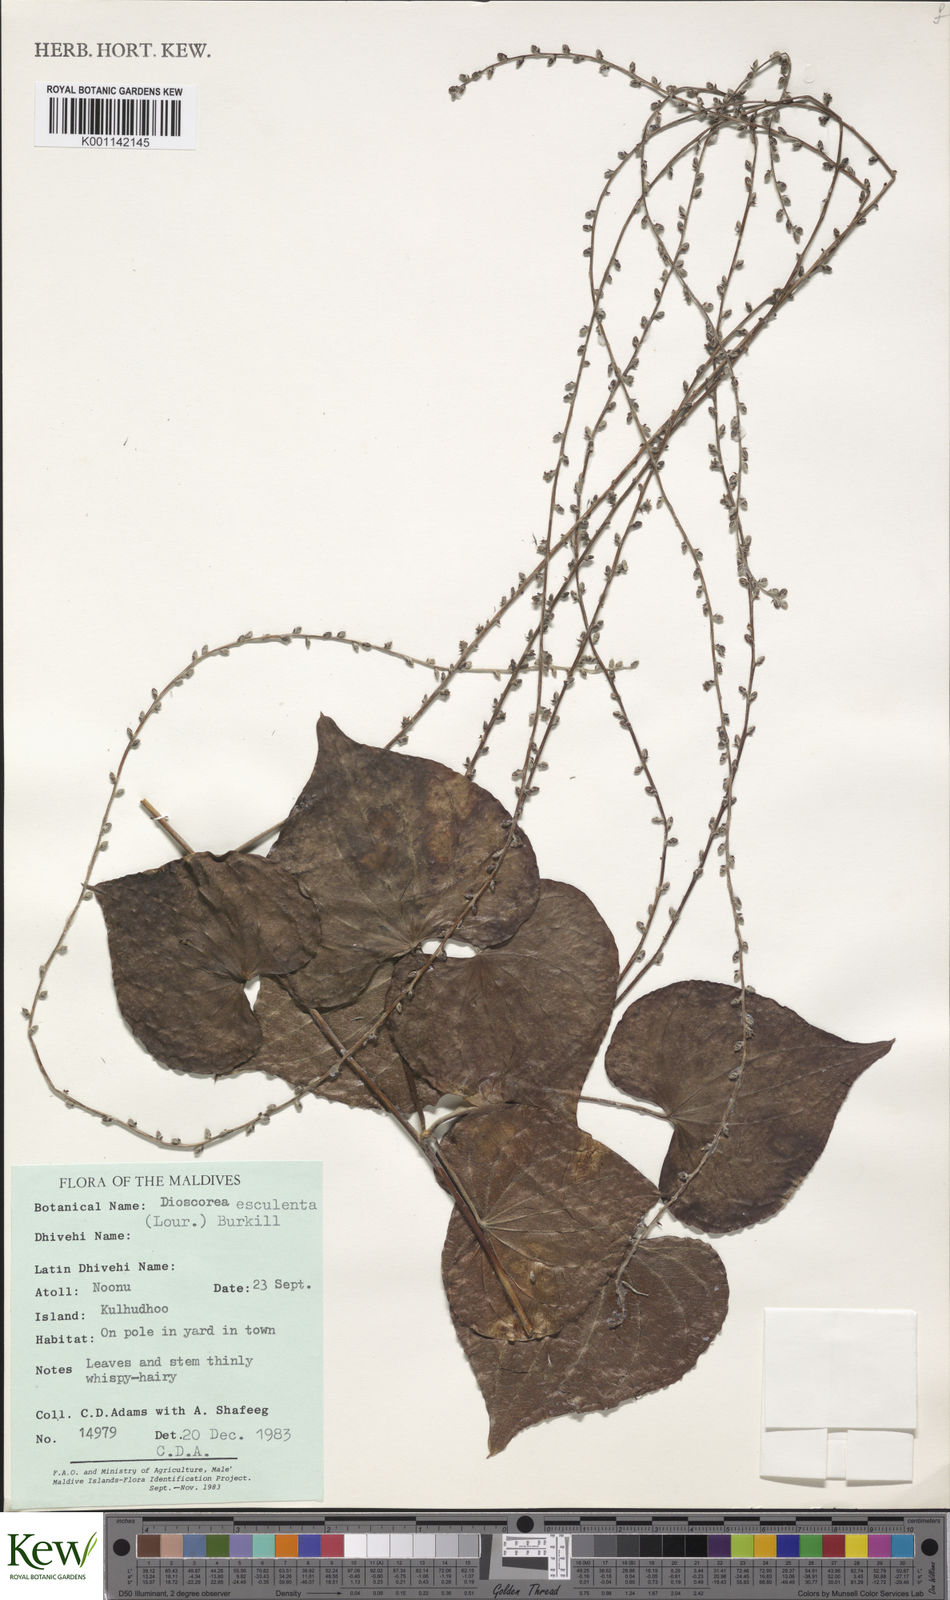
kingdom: Plantae
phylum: Tracheophyta
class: Liliopsida
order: Dioscoreales
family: Dioscoreaceae
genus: Dioscorea
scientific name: Dioscorea esculenta
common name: Chinese yam
